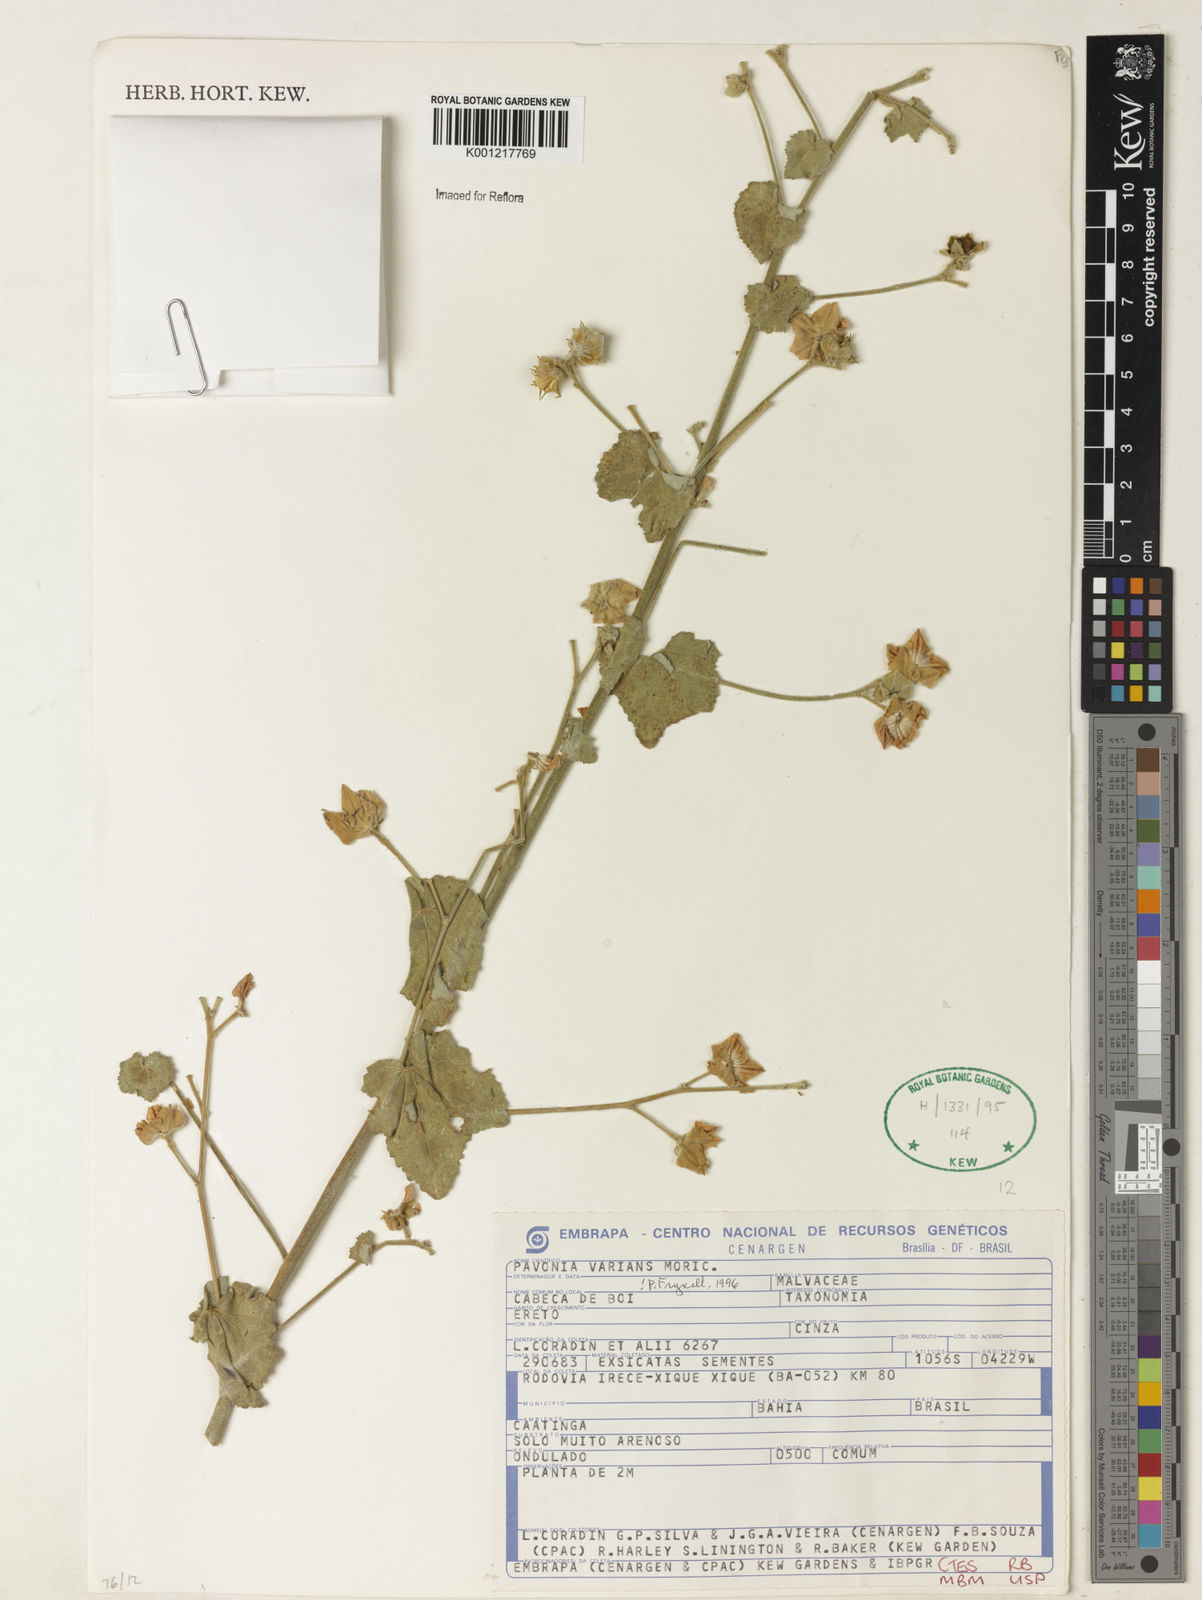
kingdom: Plantae
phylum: Tracheophyta
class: Magnoliopsida
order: Malvales
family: Malvaceae
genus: Pavonia
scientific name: Pavonia varians
